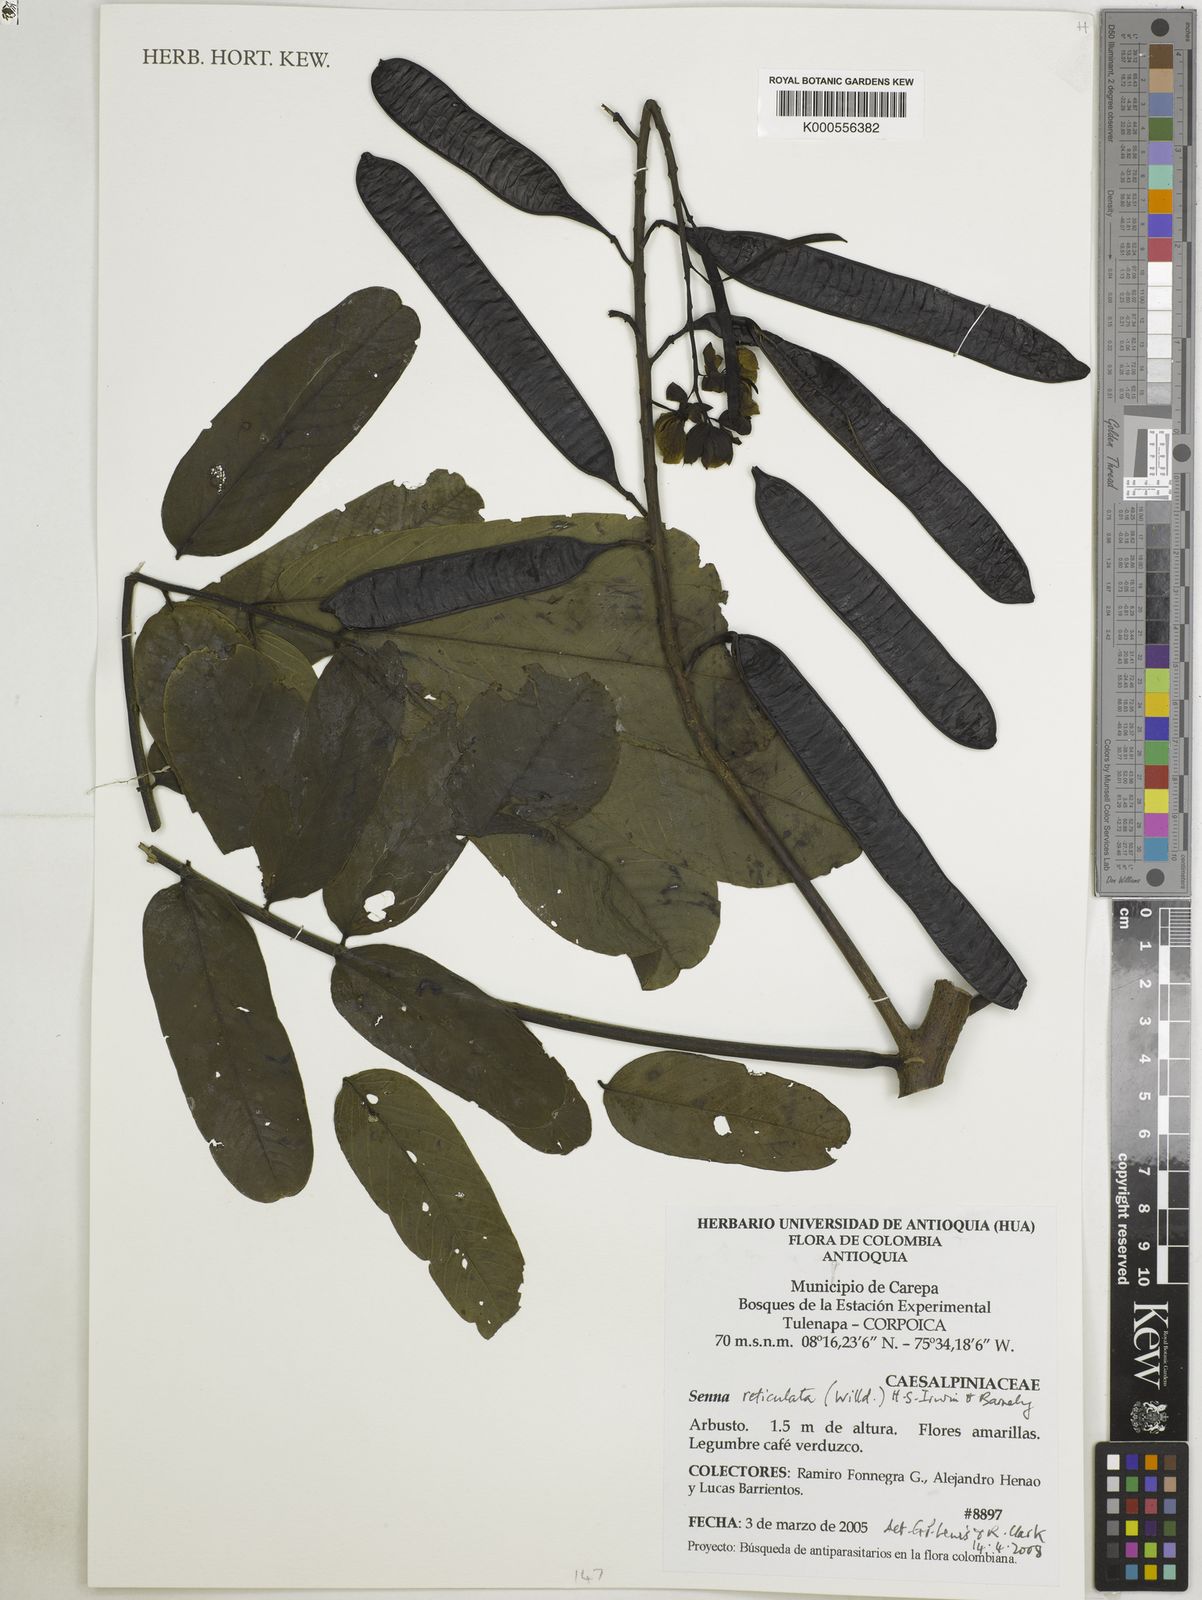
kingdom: Plantae
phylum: Tracheophyta
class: Magnoliopsida
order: Fabales
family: Fabaceae
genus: Senna
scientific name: Senna reticulata
